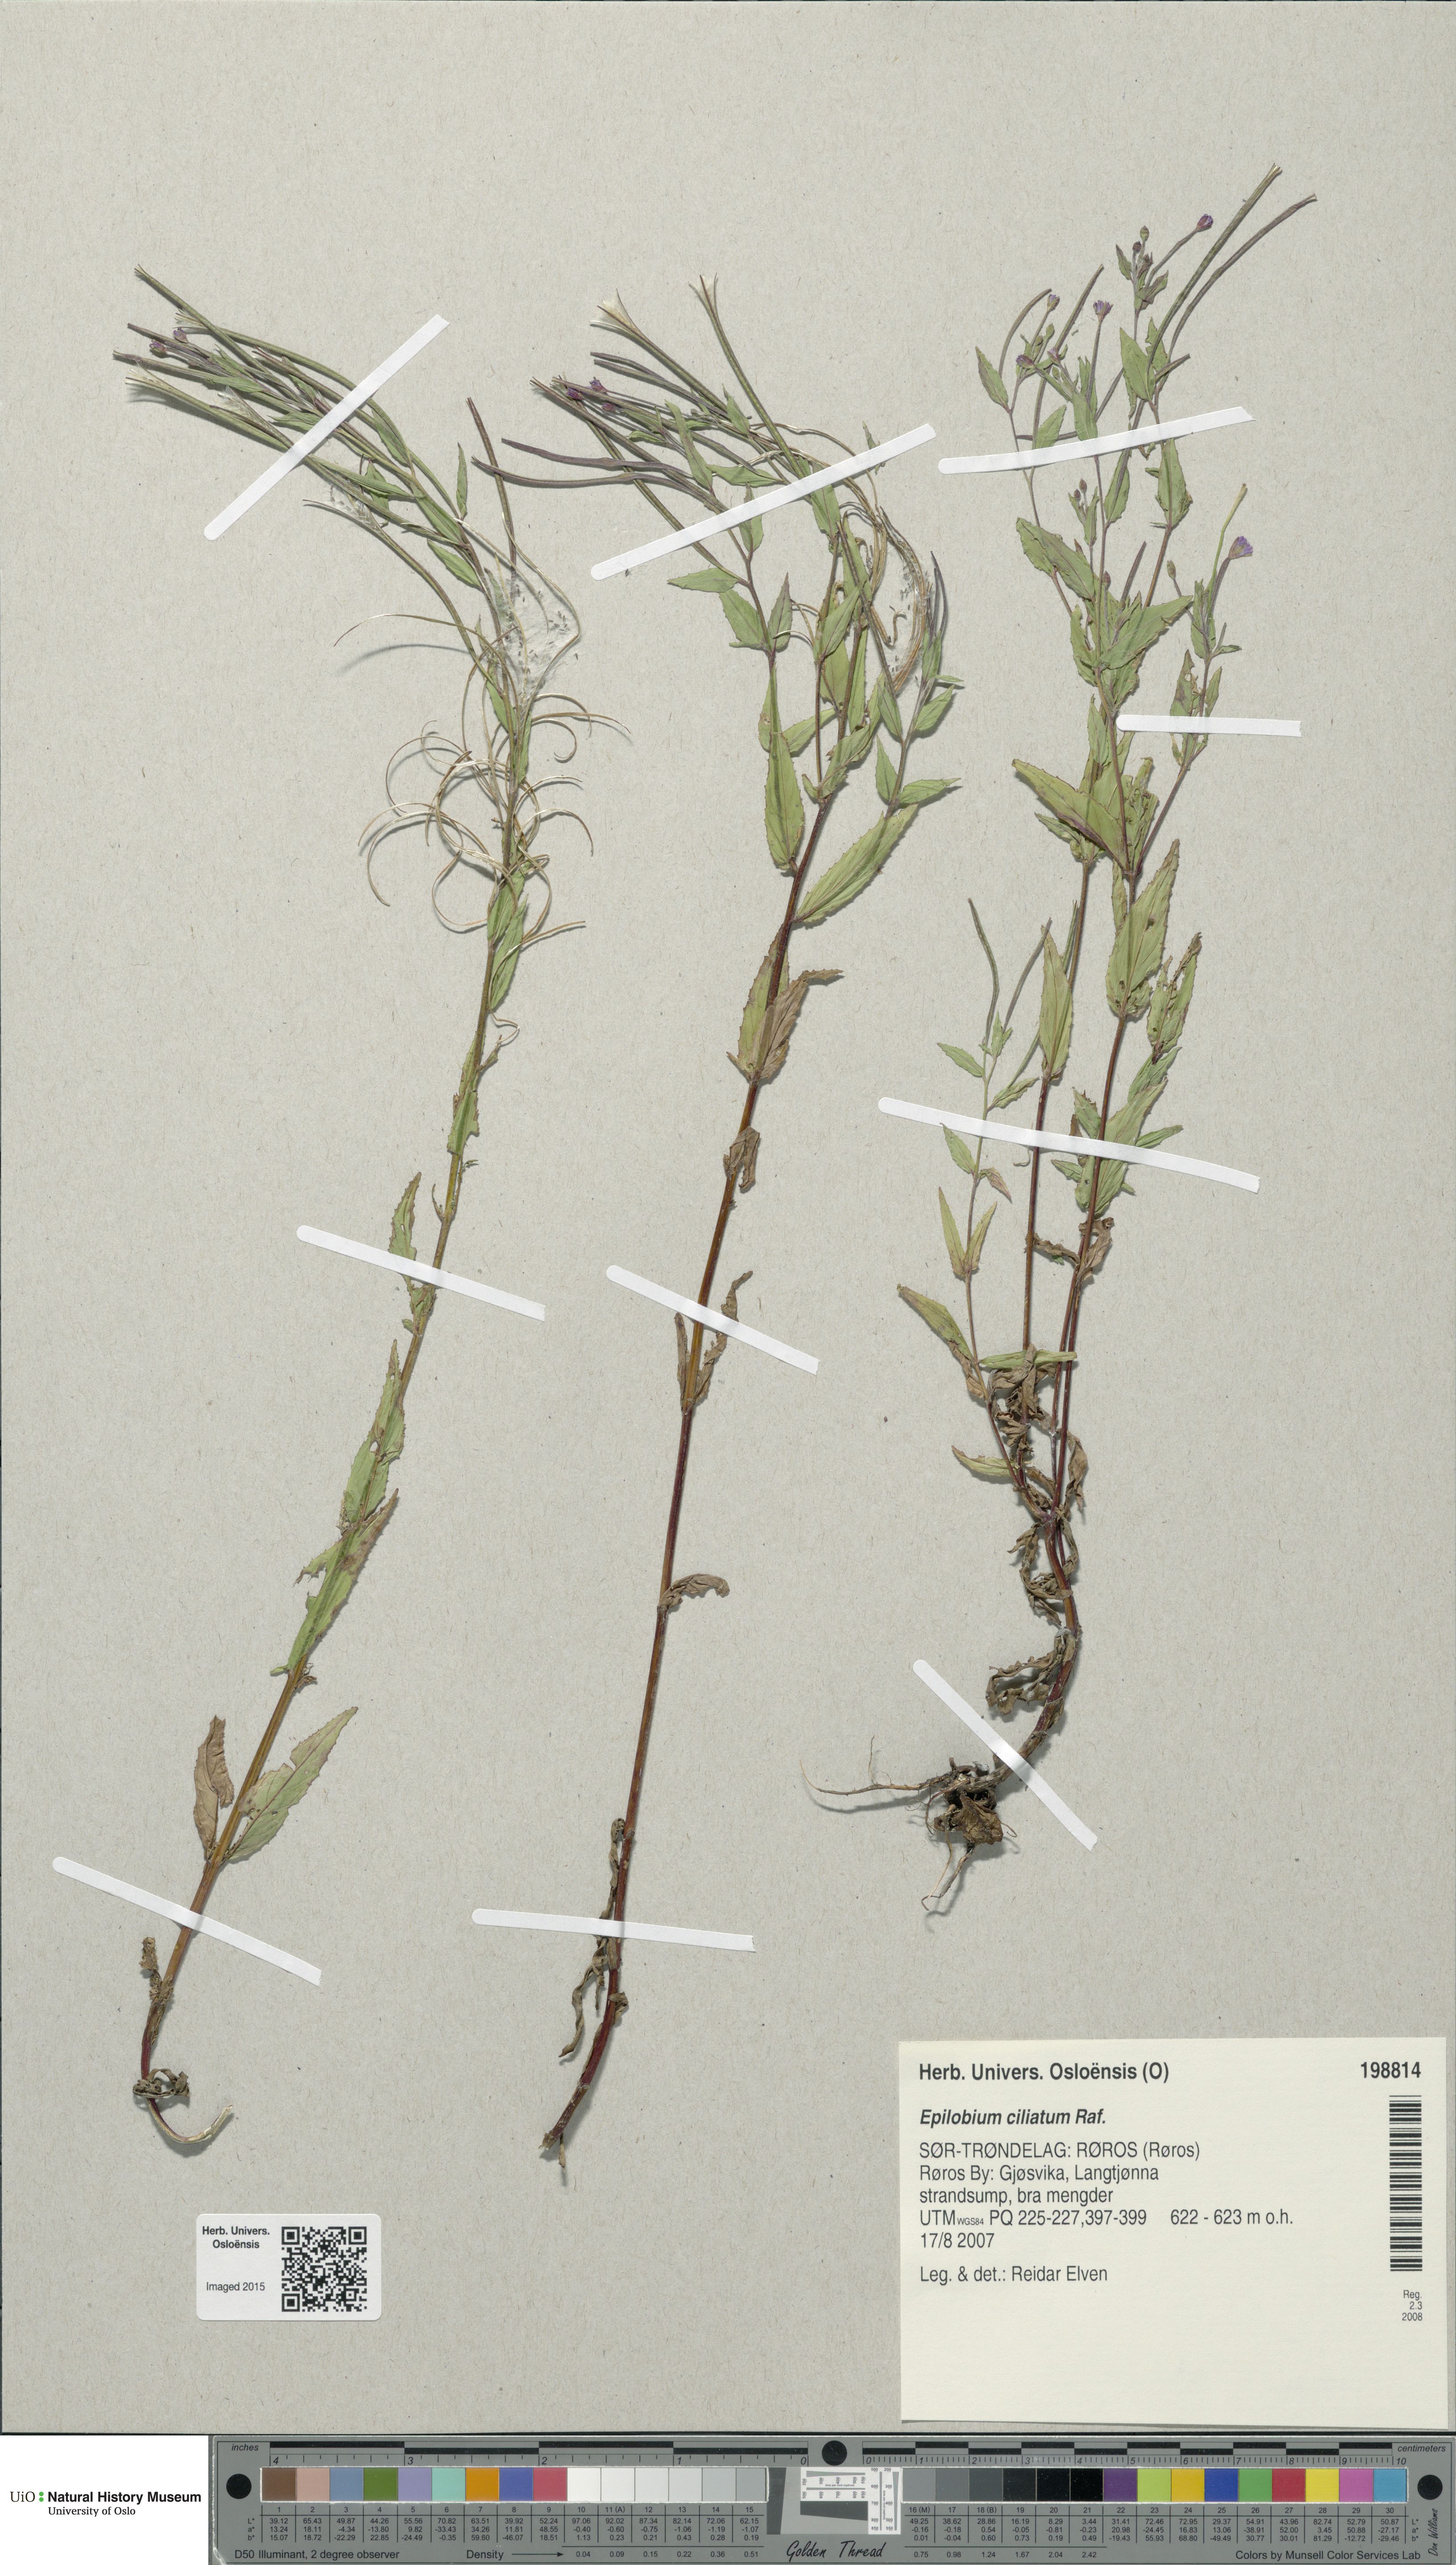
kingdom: Plantae
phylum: Tracheophyta
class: Magnoliopsida
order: Myrtales
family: Onagraceae
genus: Epilobium
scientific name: Epilobium ciliatum
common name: American willowherb
